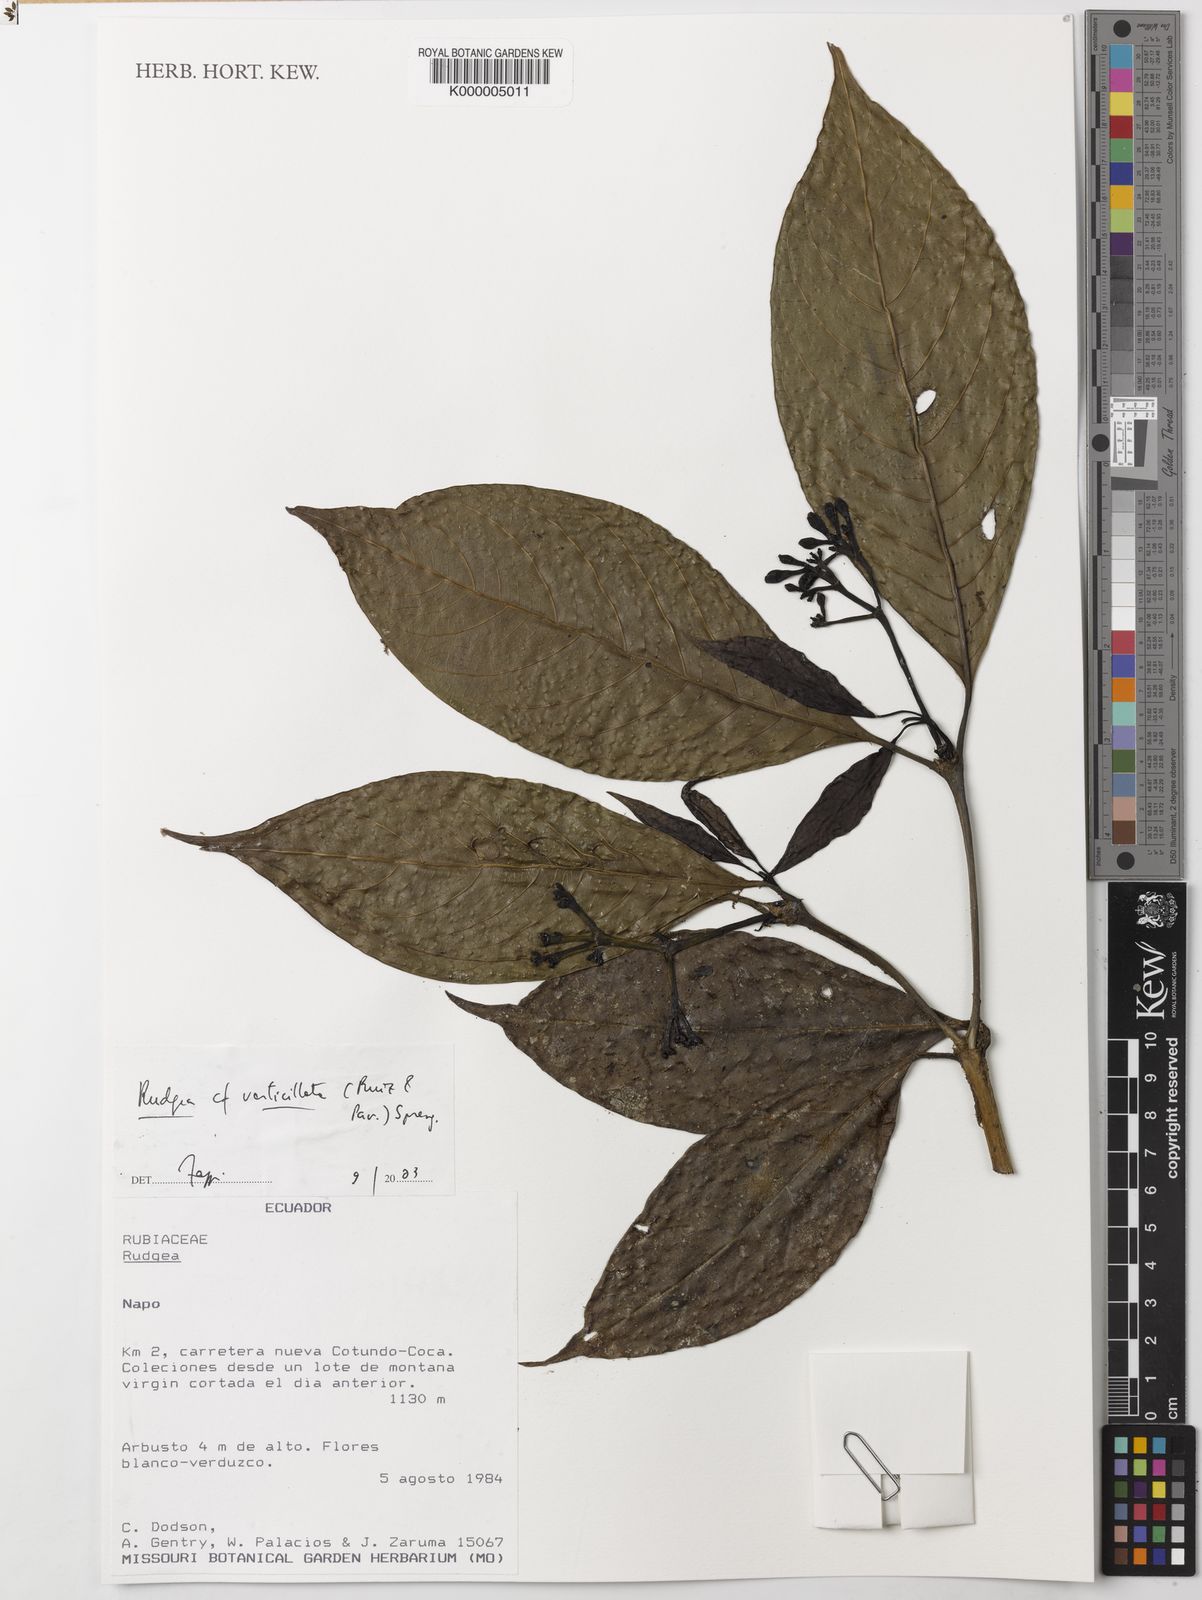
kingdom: Plantae
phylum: Tracheophyta
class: Magnoliopsida
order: Gentianales
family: Rubiaceae
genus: Rudgea
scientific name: Rudgea verticillata
